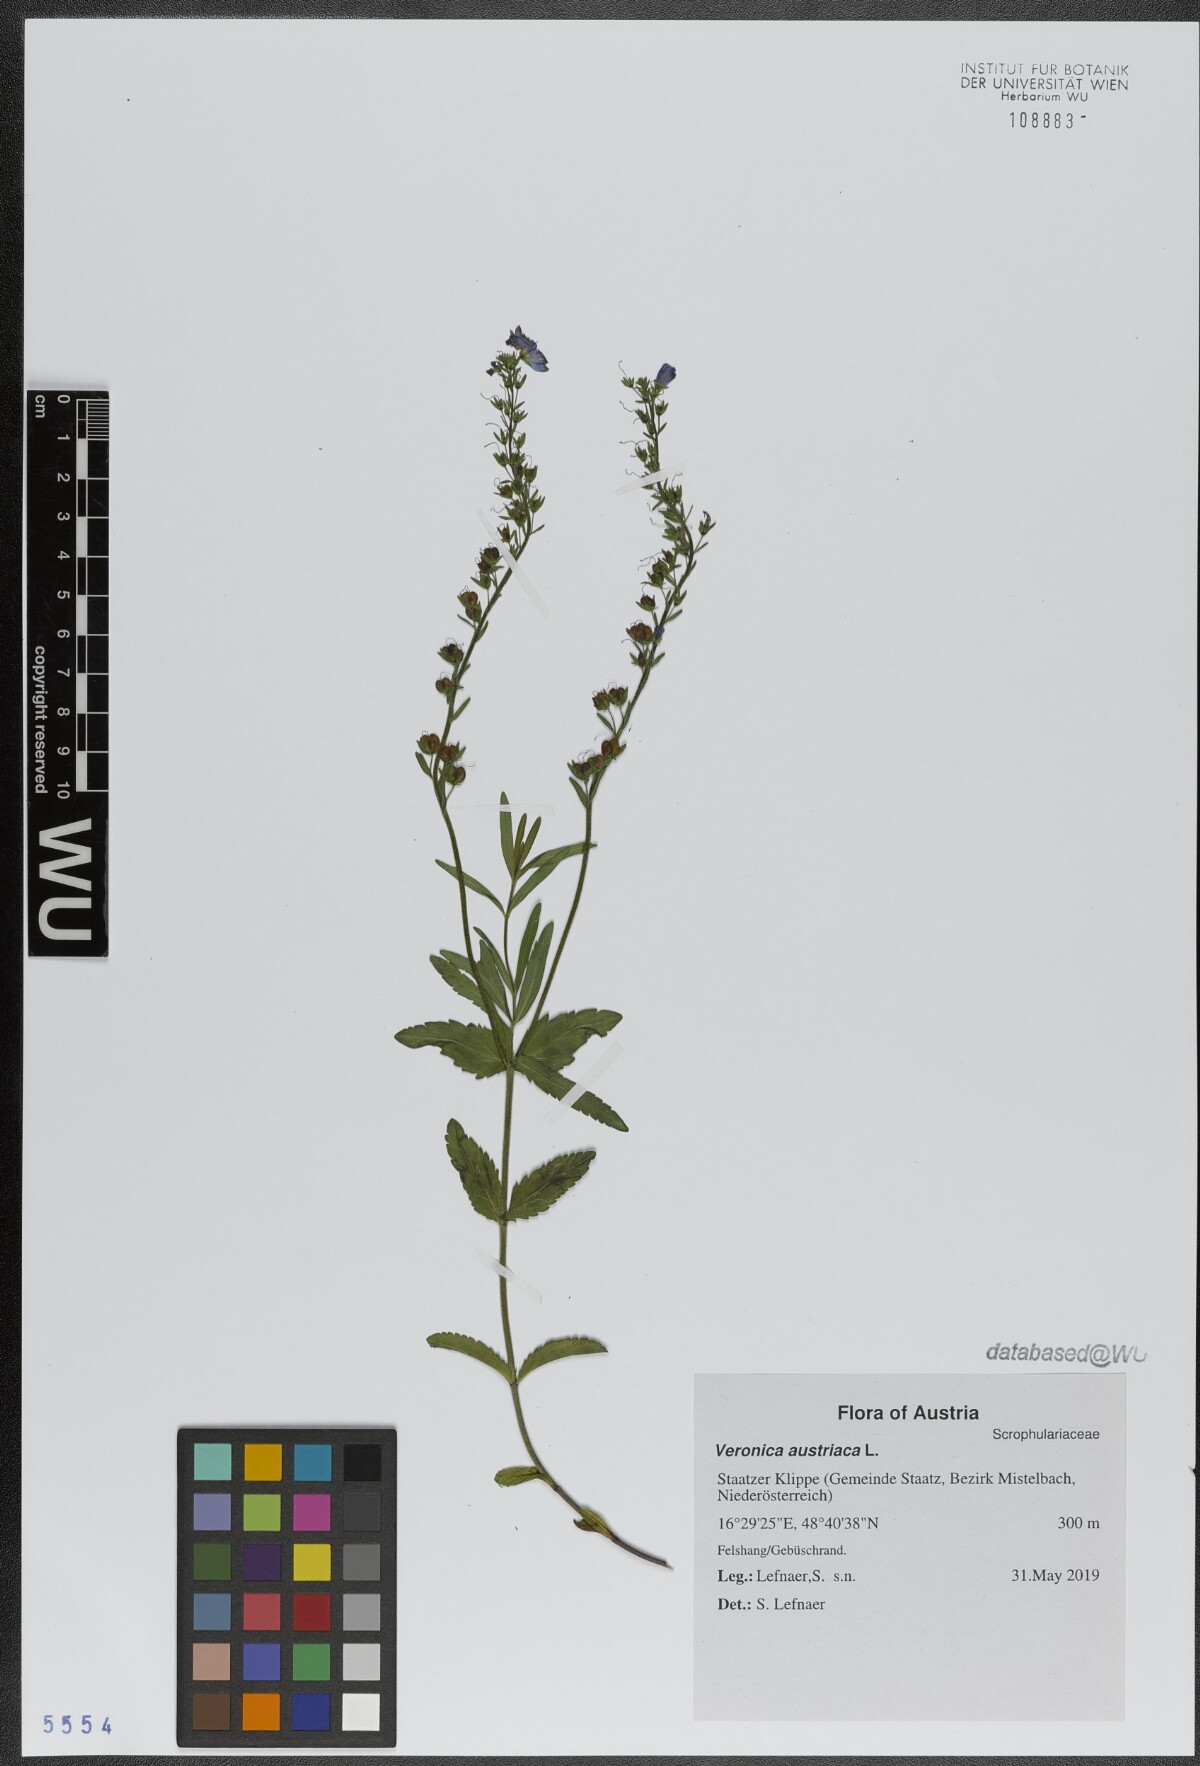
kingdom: Plantae
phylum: Tracheophyta
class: Magnoliopsida
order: Lamiales
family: Plantaginaceae
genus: Veronica
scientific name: Veronica austriaca
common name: Large speedwell
